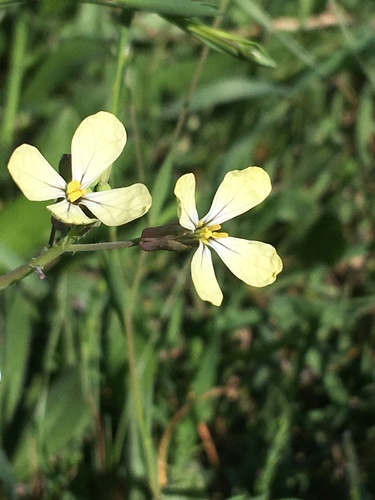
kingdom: Plantae
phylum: Tracheophyta
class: Magnoliopsida
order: Brassicales
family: Brassicaceae
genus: Raphanus
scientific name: Raphanus raphanistrum
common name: Wild radish
